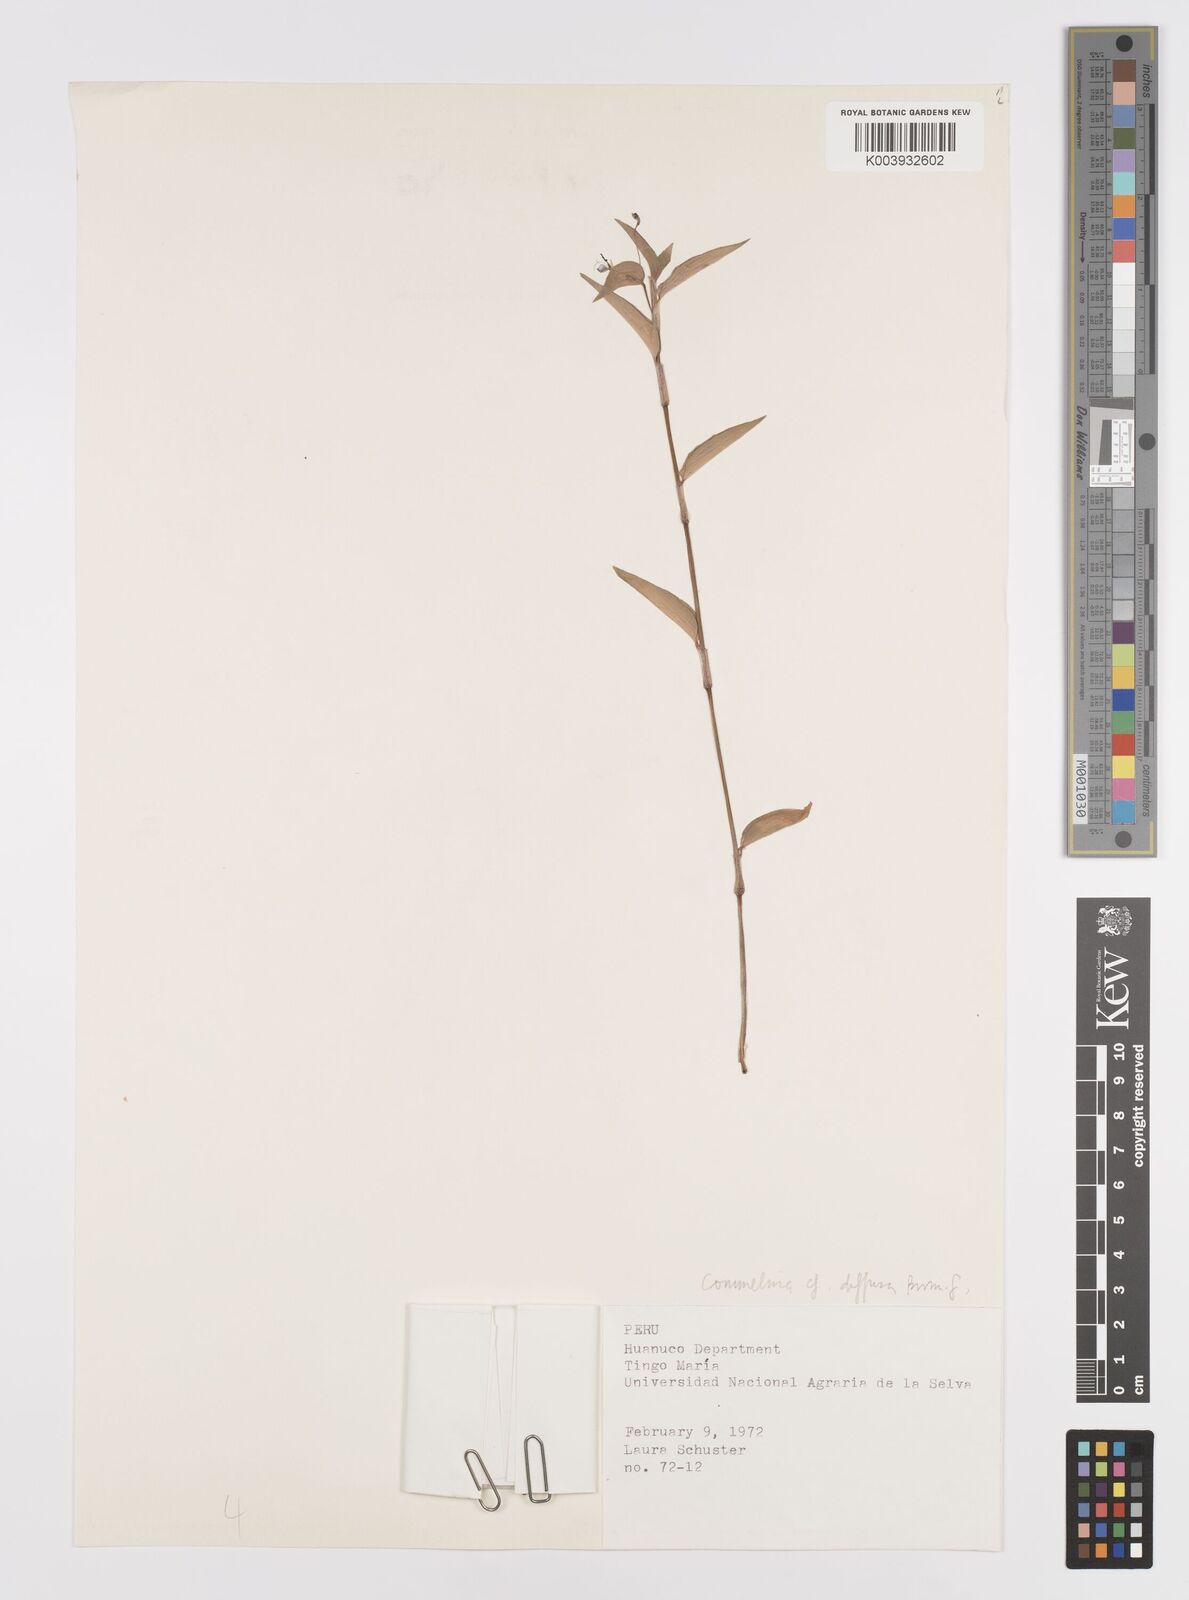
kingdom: Plantae
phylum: Tracheophyta
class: Liliopsida
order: Commelinales
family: Commelinaceae
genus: Commelina
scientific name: Commelina diffusa
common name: Climbing dayflower
